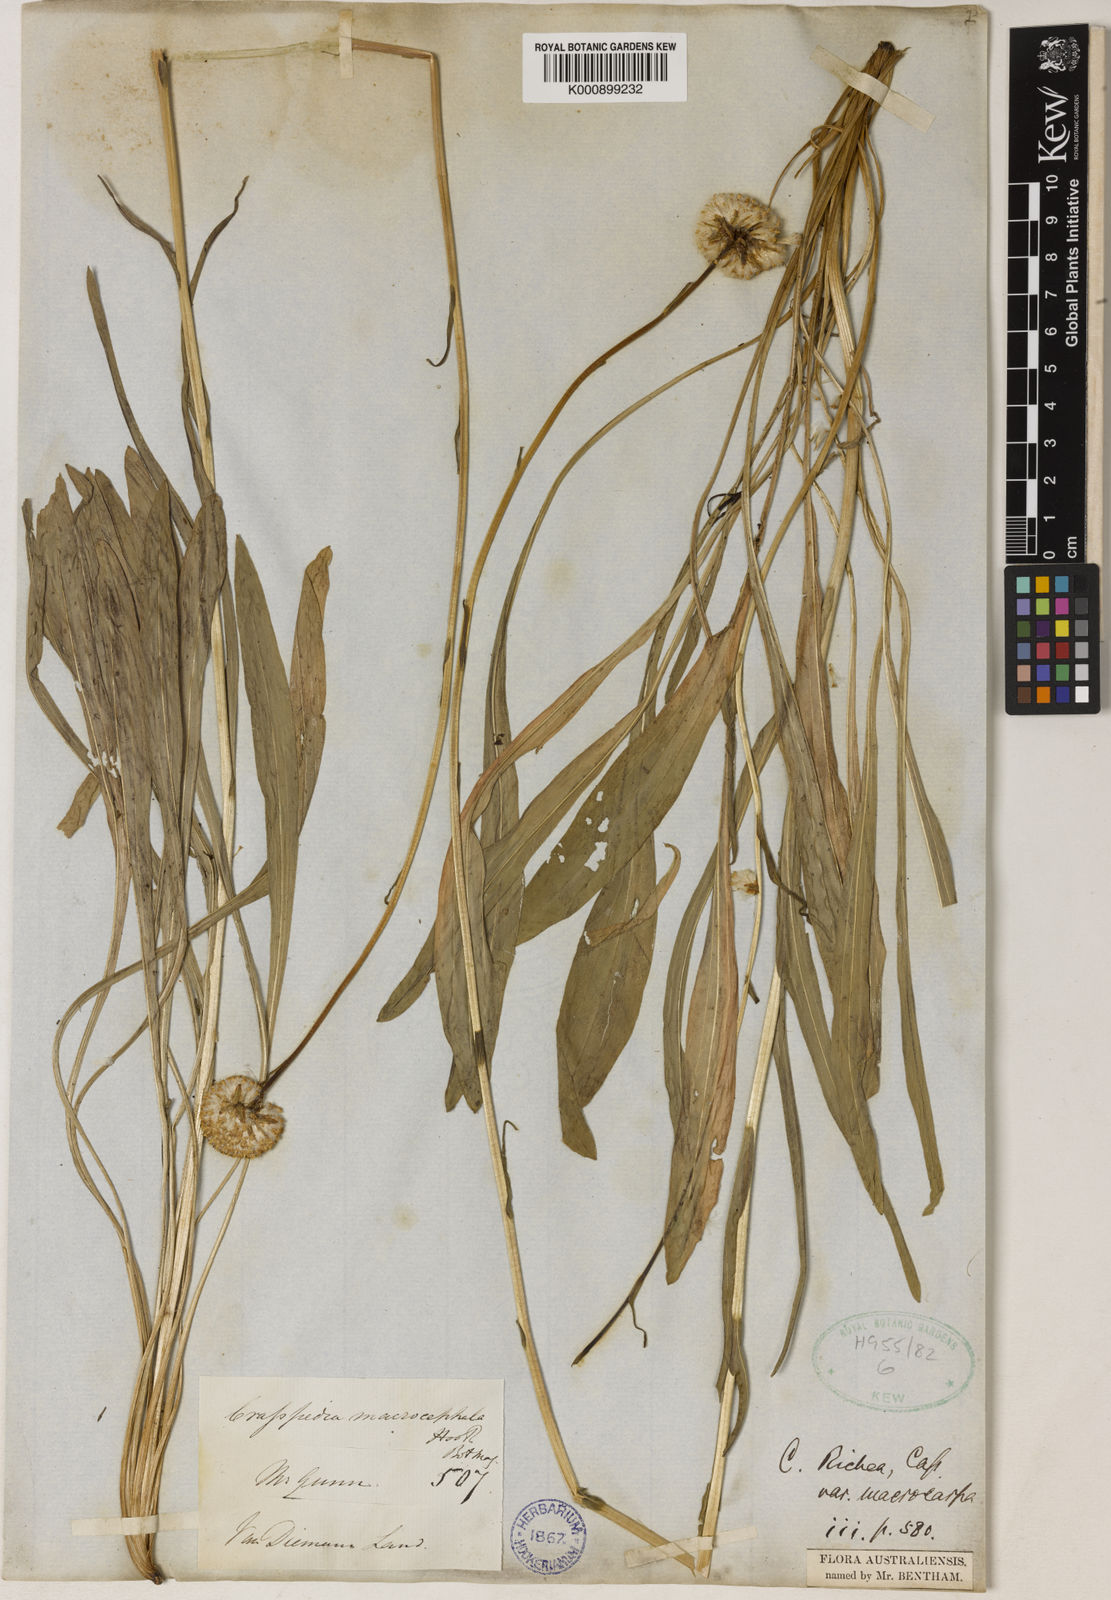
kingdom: Plantae
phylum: Tracheophyta
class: Magnoliopsida
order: Asterales
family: Asteraceae
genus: Craspedia
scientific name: Craspedia glauca
